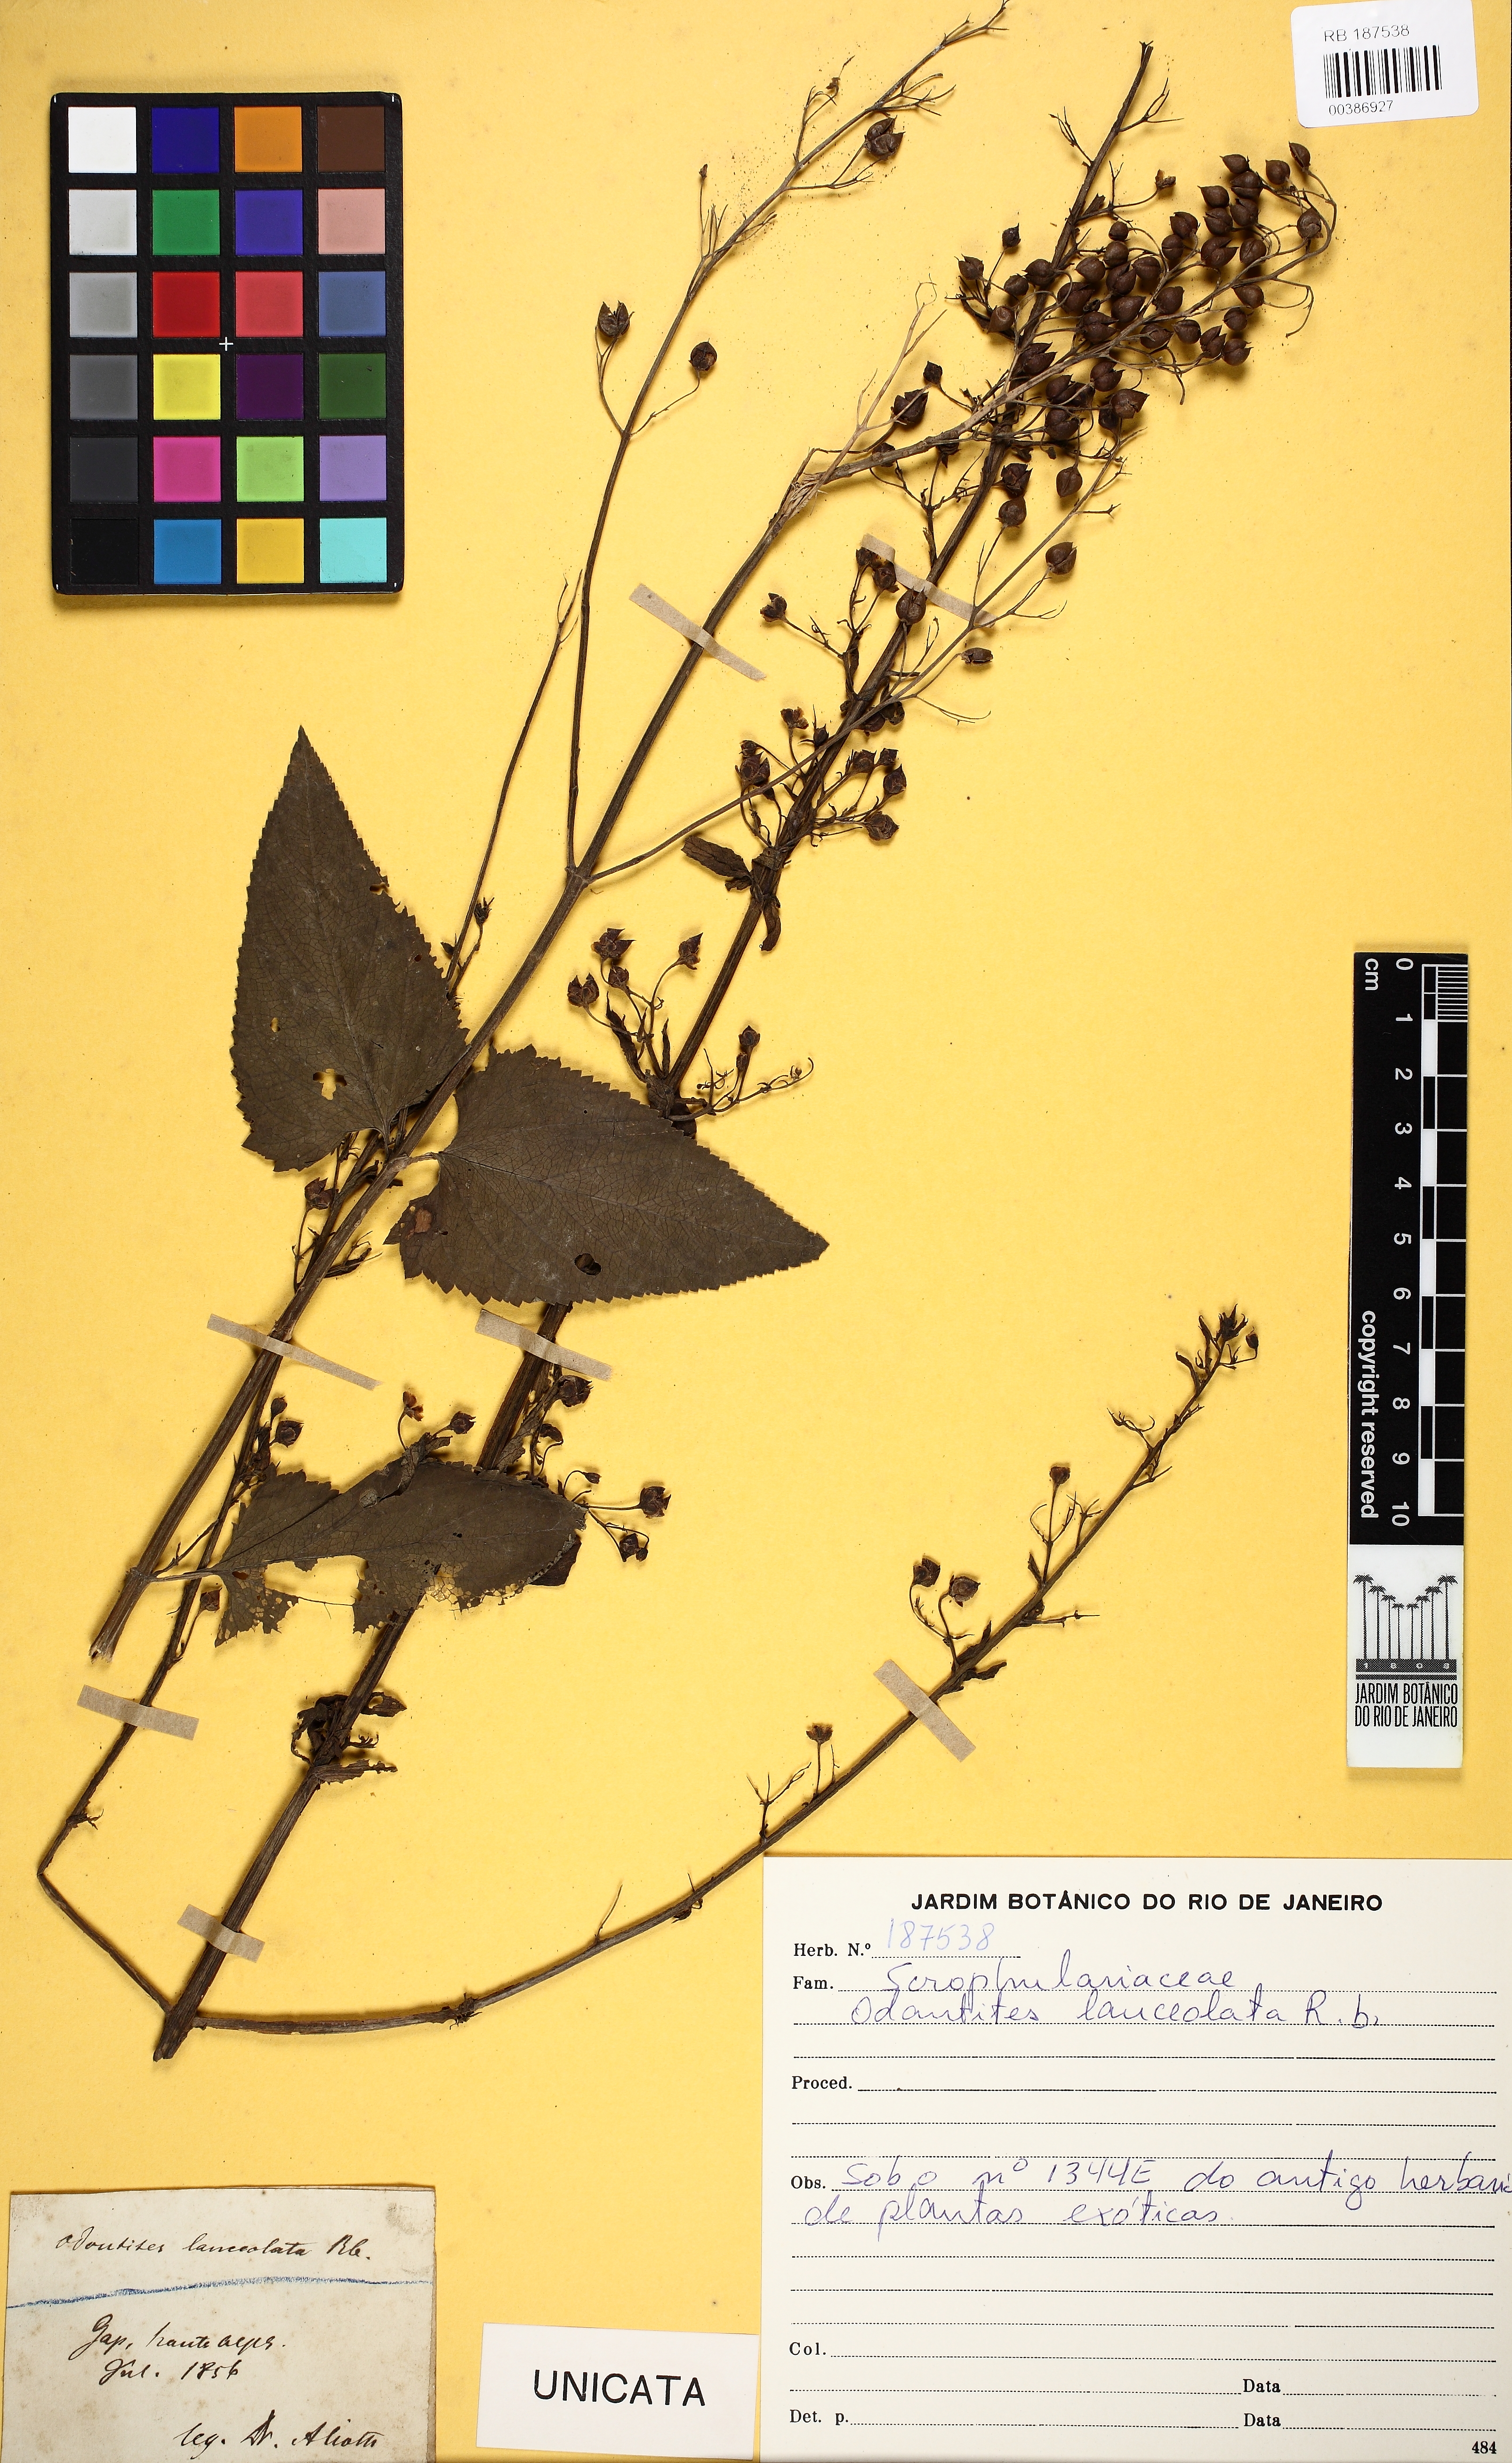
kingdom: Plantae
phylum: Tracheophyta
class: Magnoliopsida
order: Lamiales
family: Scrophulariaceae
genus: Odontites
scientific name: Odontites
